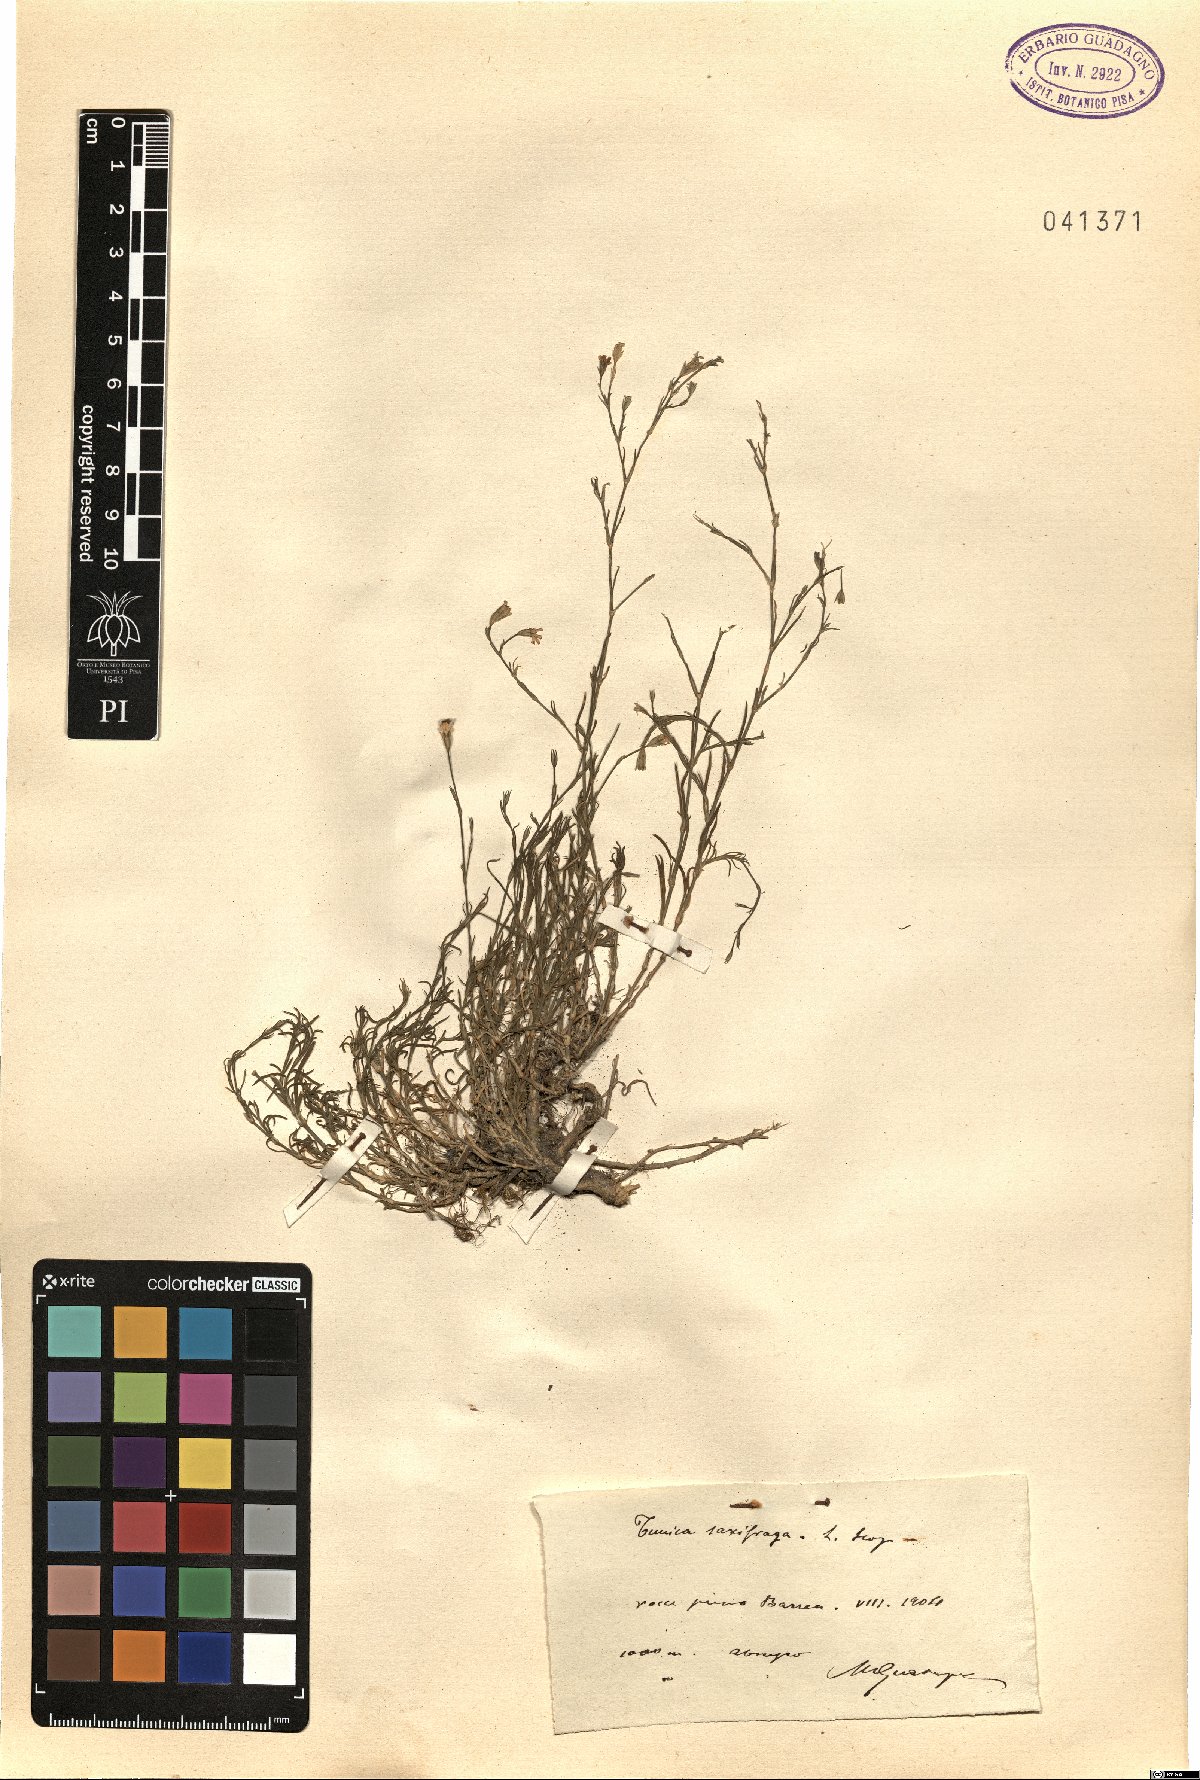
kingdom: Plantae
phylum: Tracheophyta
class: Magnoliopsida
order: Caryophyllales
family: Caryophyllaceae
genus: Petrorhagia
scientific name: Petrorhagia saxifraga
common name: Tunicflower
